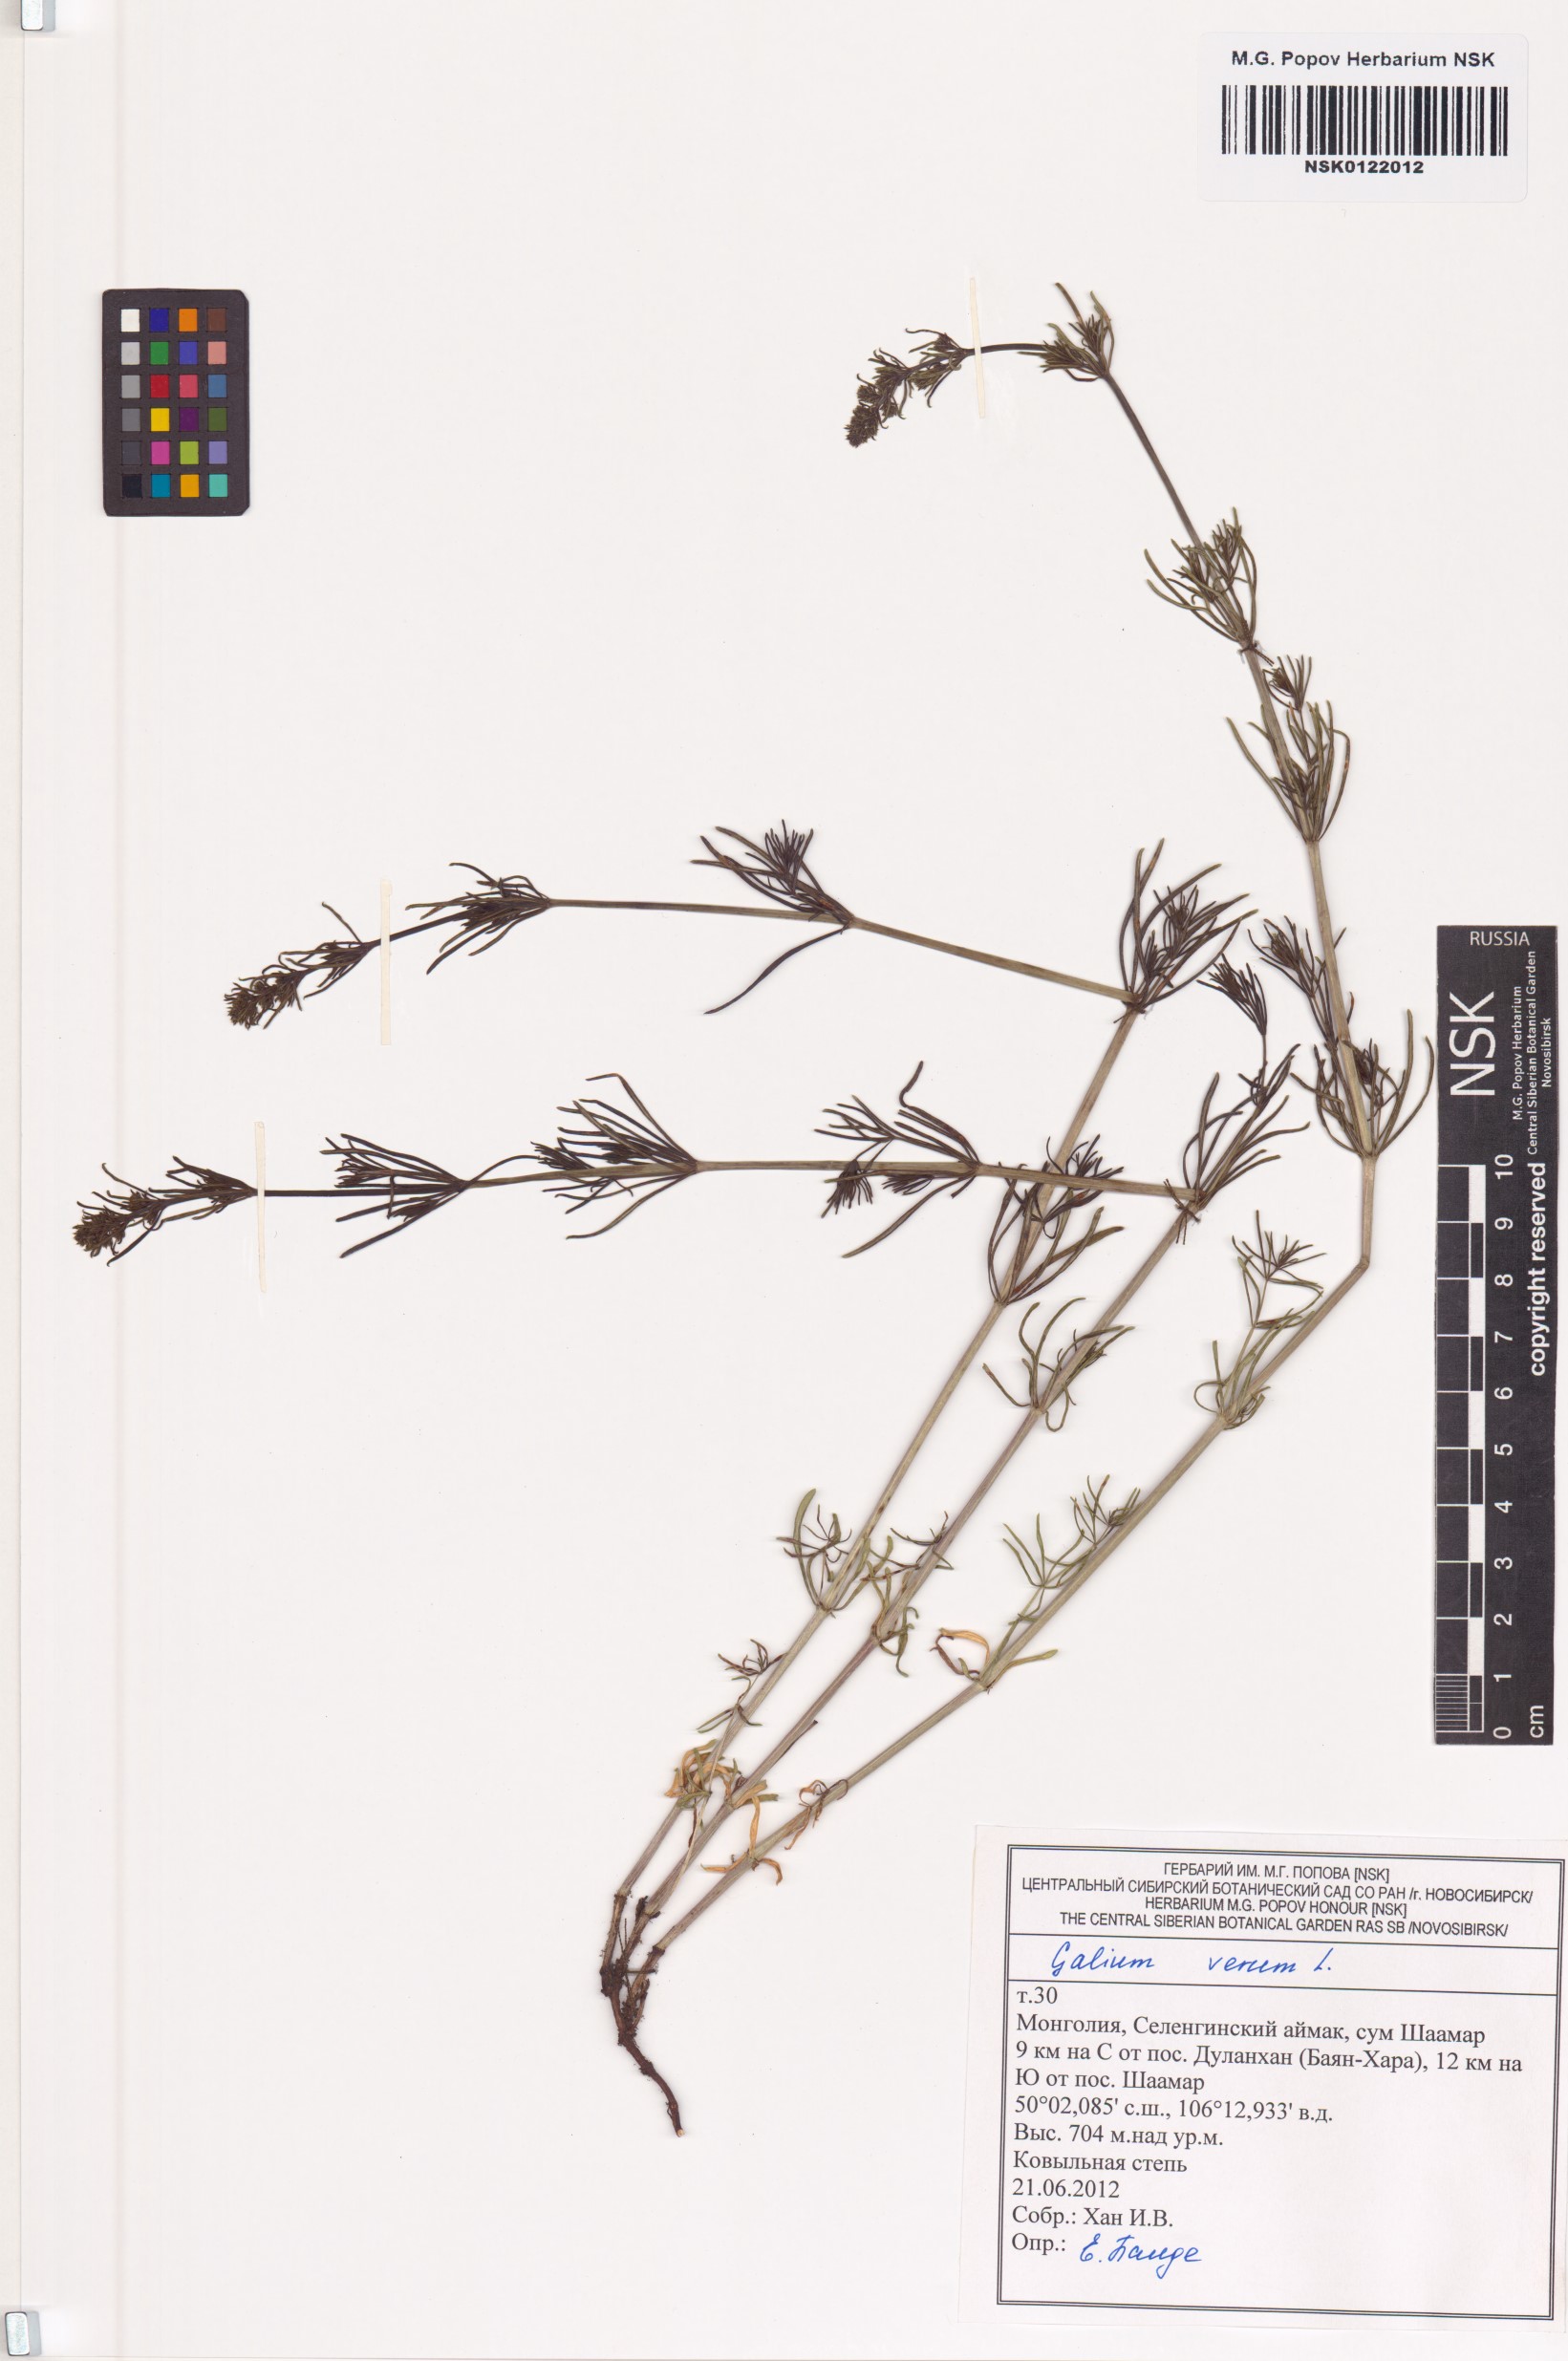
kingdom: Plantae
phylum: Tracheophyta
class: Magnoliopsida
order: Gentianales
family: Rubiaceae
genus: Galium
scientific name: Galium verum
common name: Lady's bedstraw
